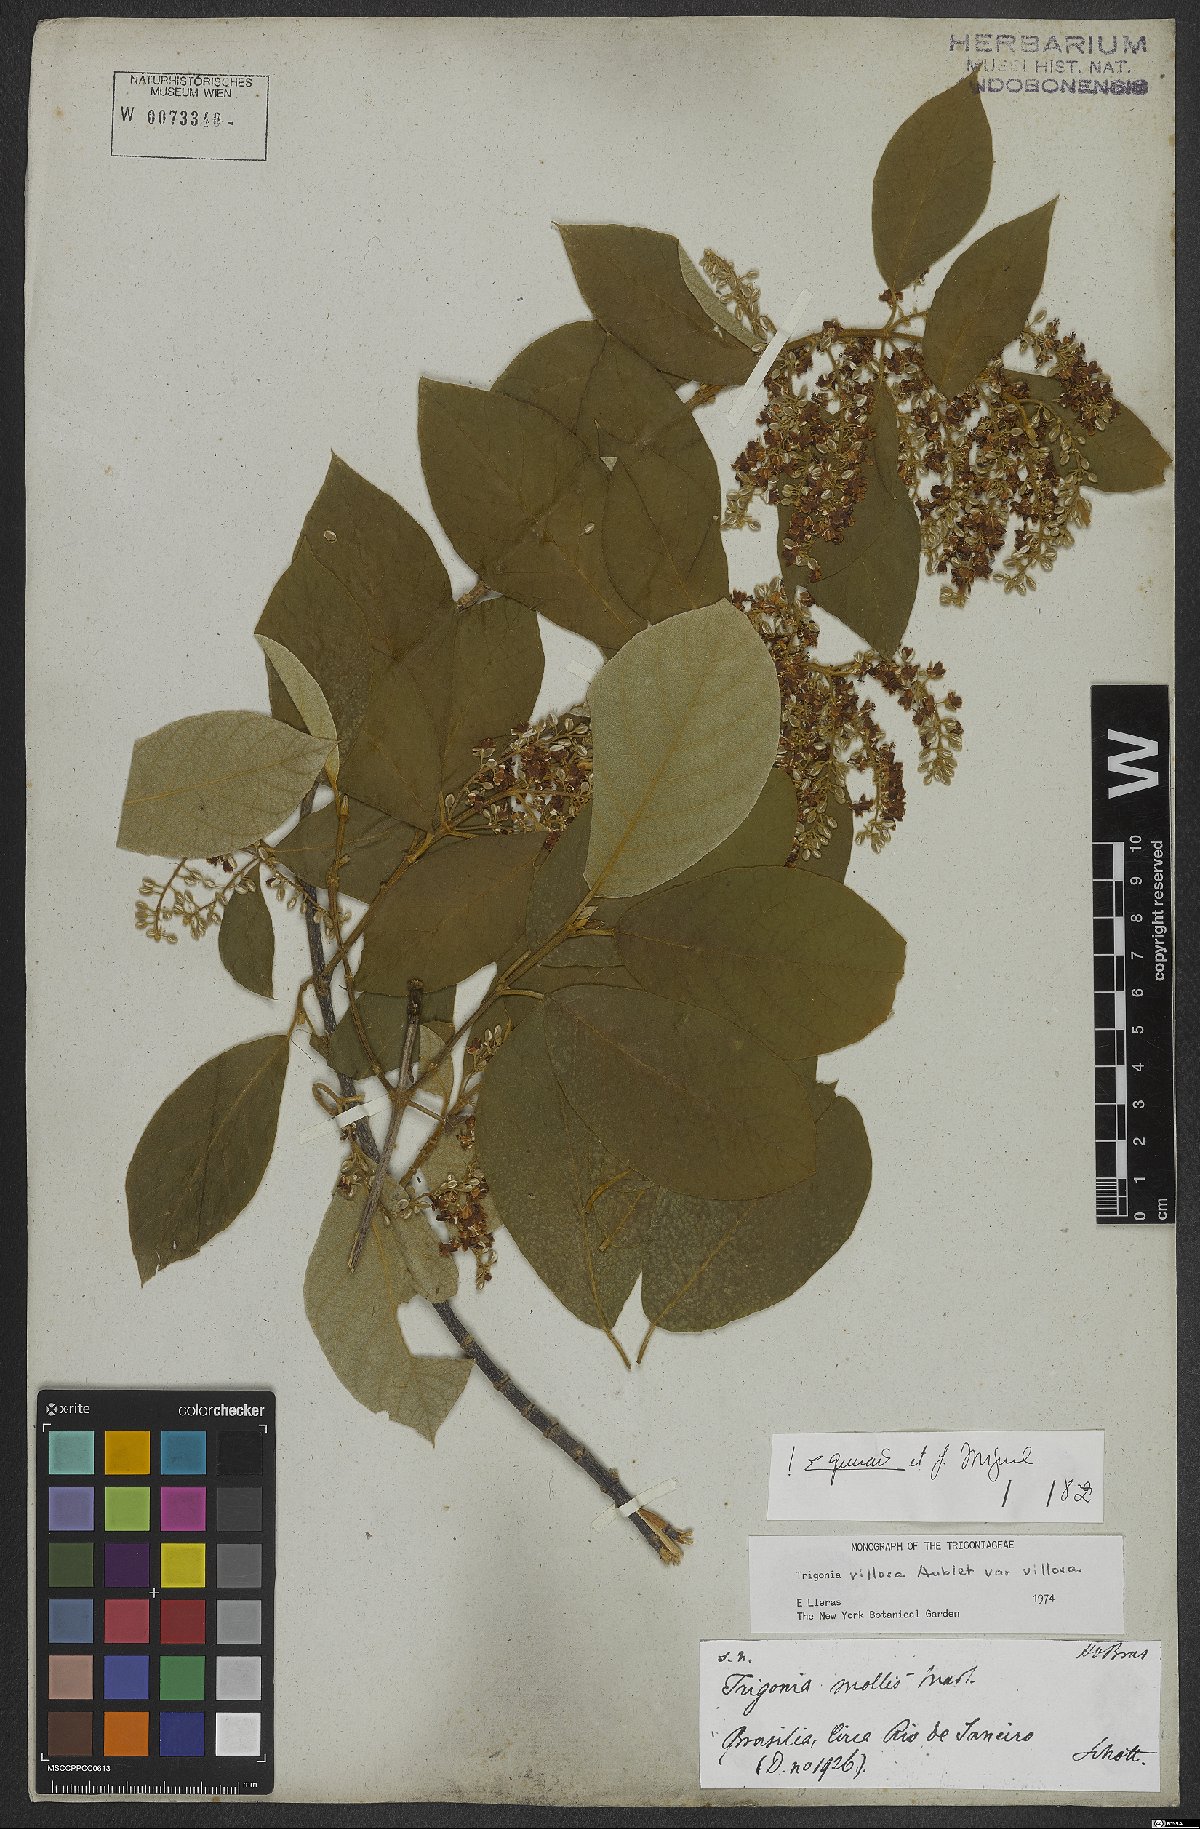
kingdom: Plantae
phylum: Tracheophyta
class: Magnoliopsida
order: Malpighiales
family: Trigoniaceae
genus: Trigonia
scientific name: Trigonia villosa
